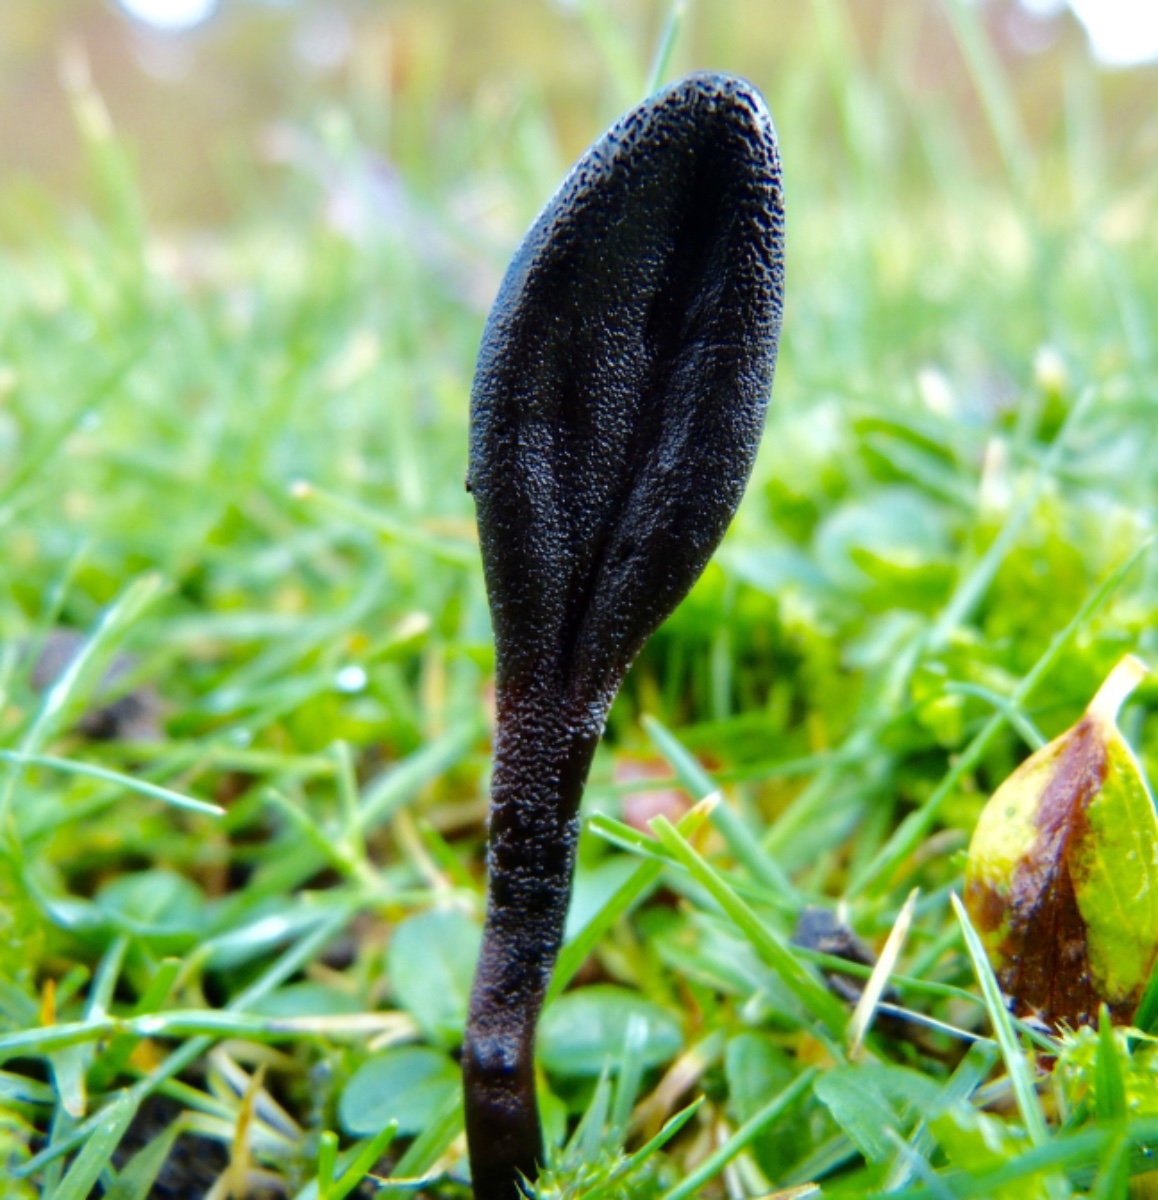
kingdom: Fungi
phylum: Ascomycota
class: Geoglossomycetes
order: Geoglossales
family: Geoglossaceae
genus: Geoglossum
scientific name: Geoglossum
